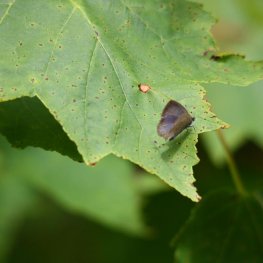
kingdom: Animalia
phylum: Arthropoda
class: Insecta
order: Lepidoptera
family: Lycaenidae
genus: Celastrina
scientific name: Celastrina serotina
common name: Cherry Gall Azure
